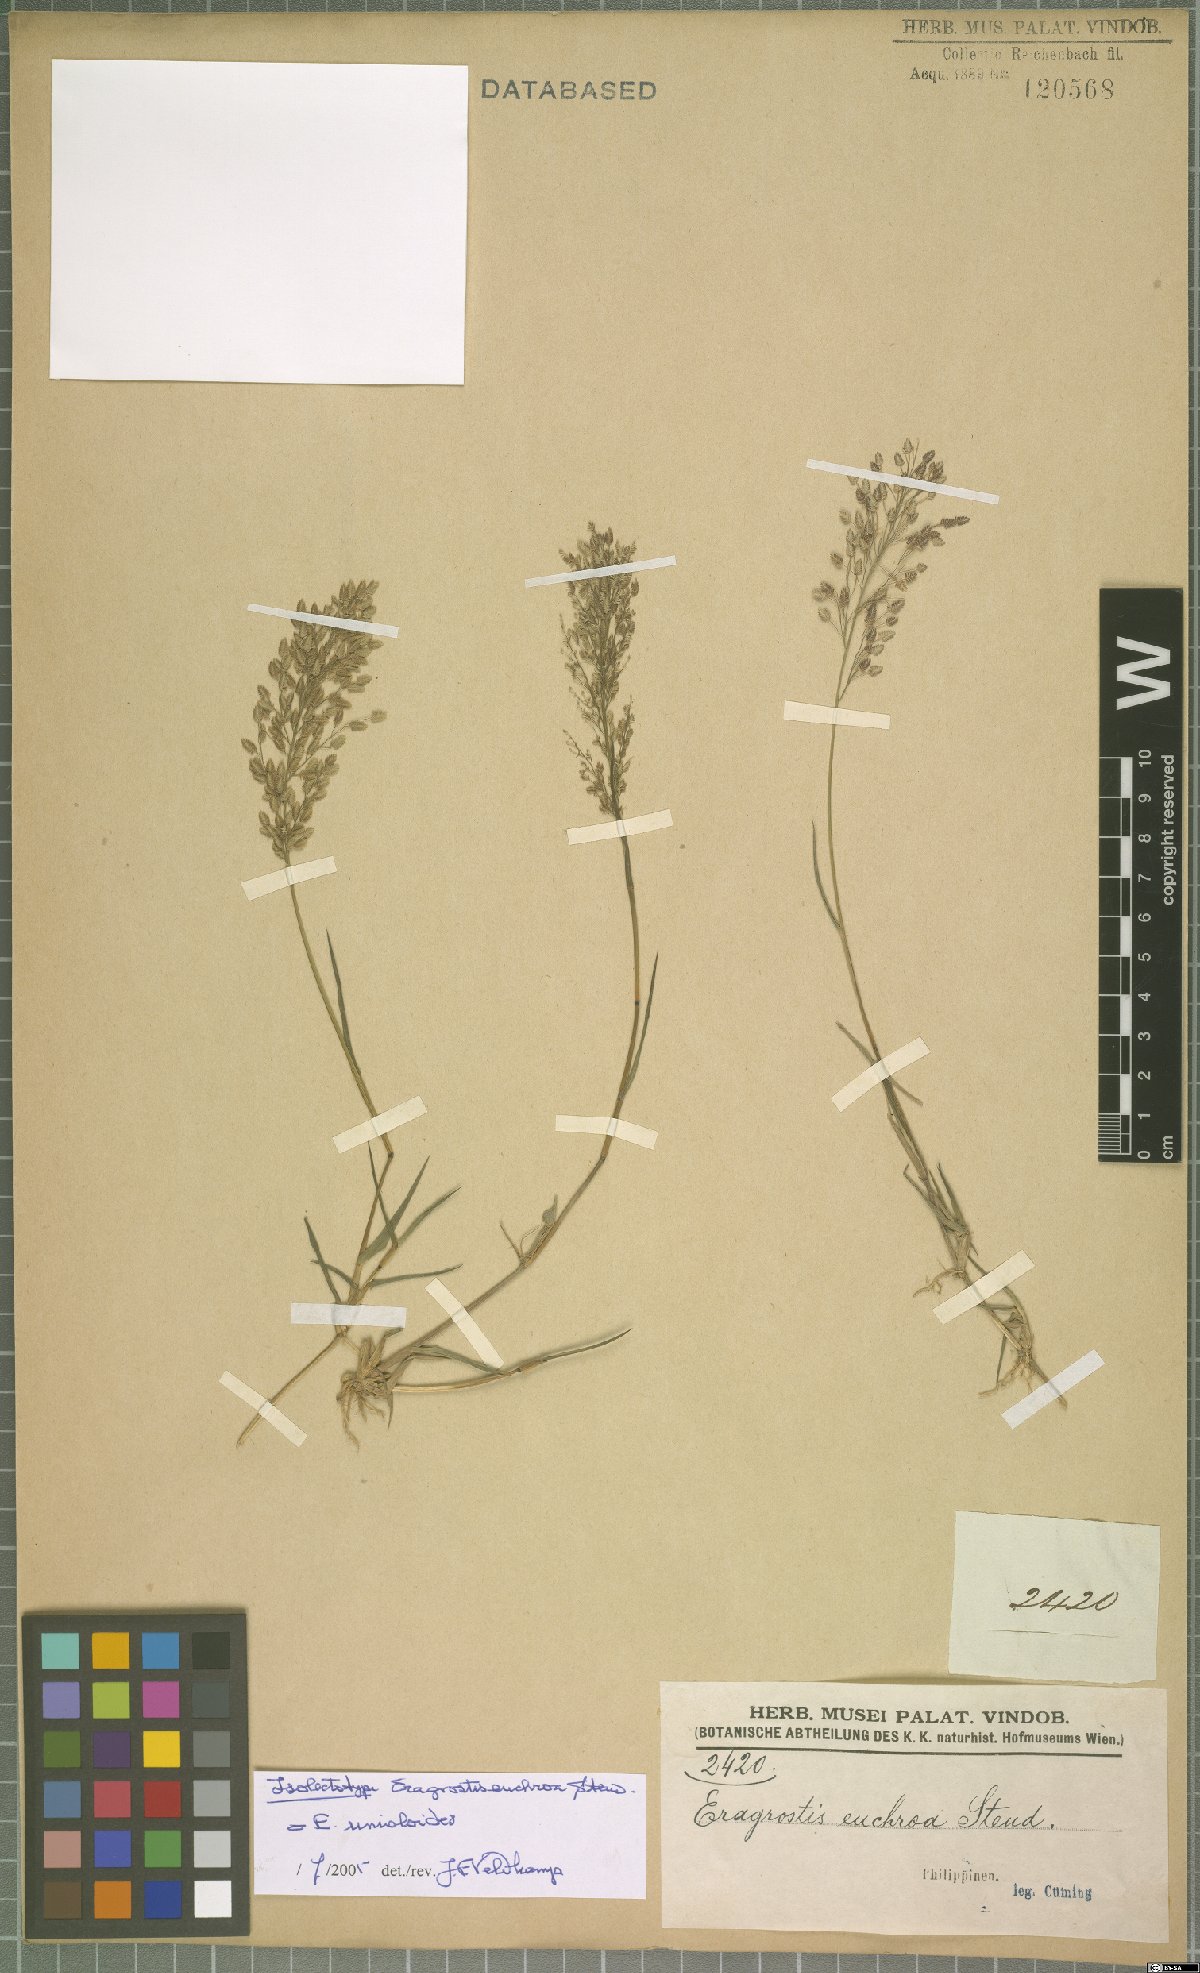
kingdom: Plantae
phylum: Tracheophyta
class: Liliopsida
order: Poales
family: Poaceae
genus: Eragrostis
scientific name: Eragrostis unioloides
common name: Chinese lovegrass
